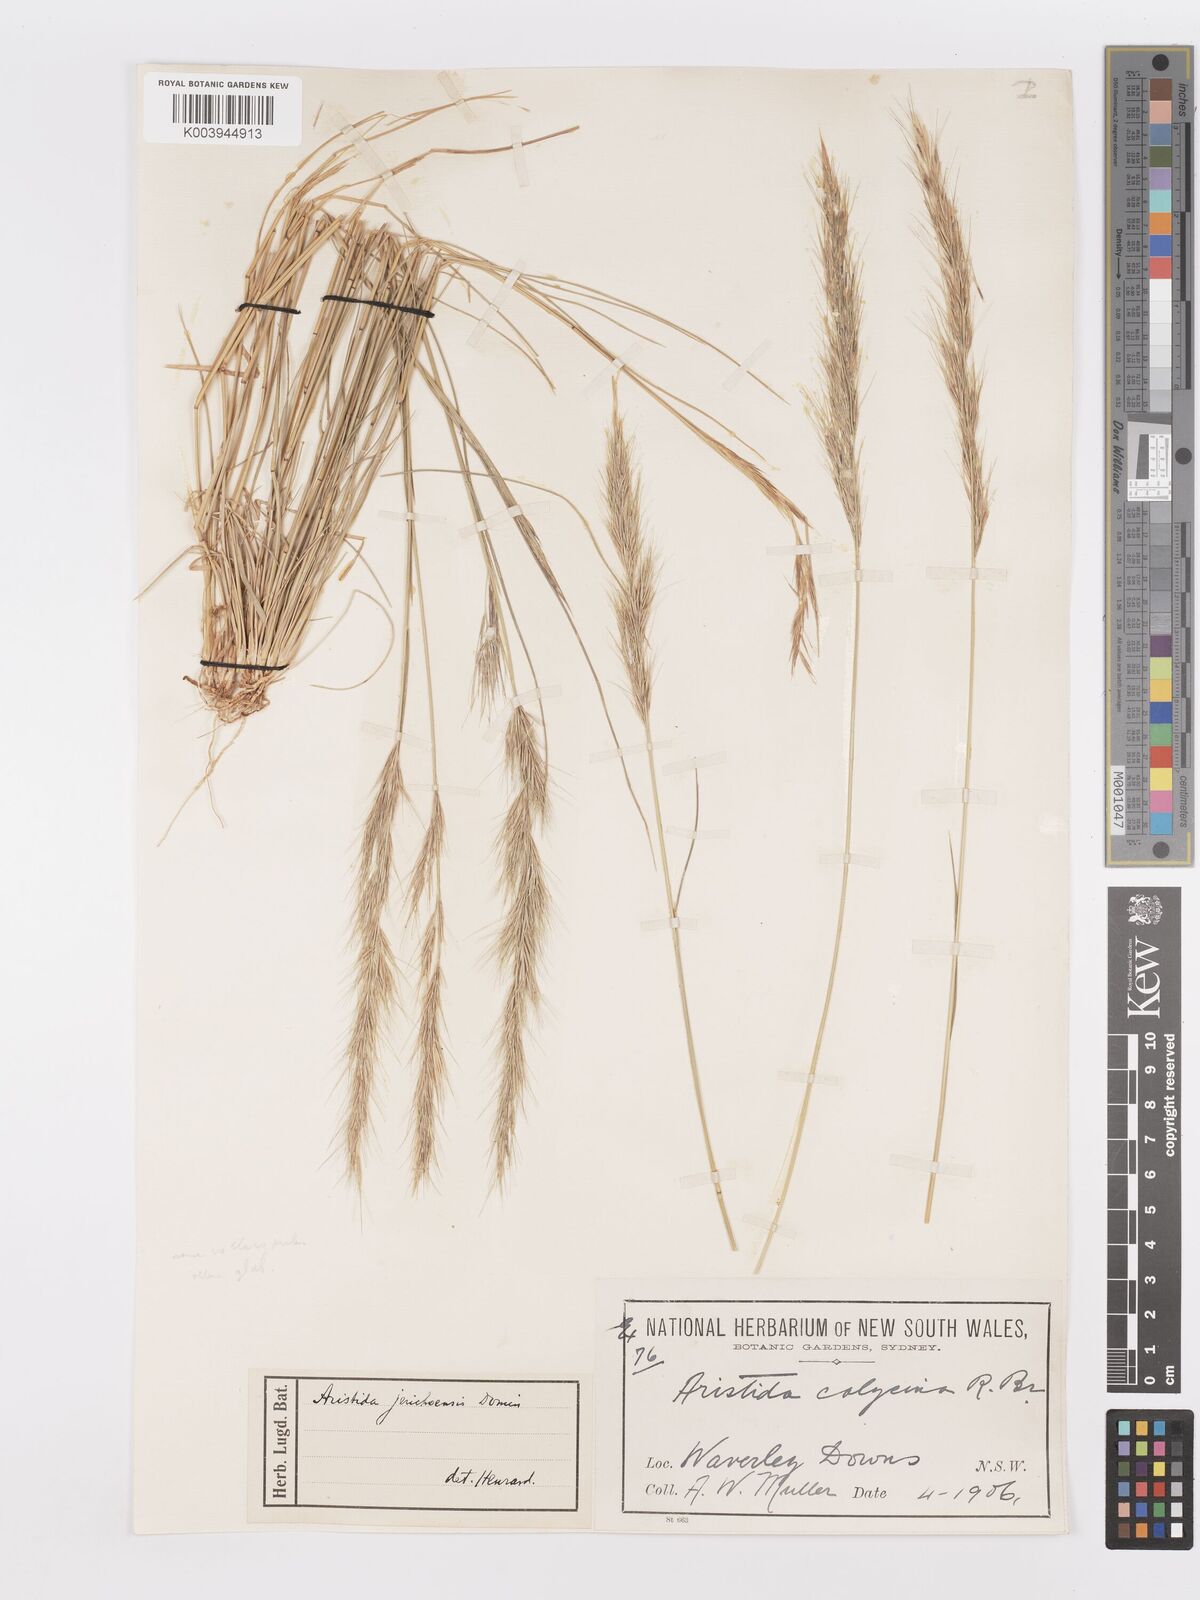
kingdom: Plantae
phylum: Tracheophyta
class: Liliopsida
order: Poales
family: Poaceae
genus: Aristida
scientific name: Aristida jerichoensis
